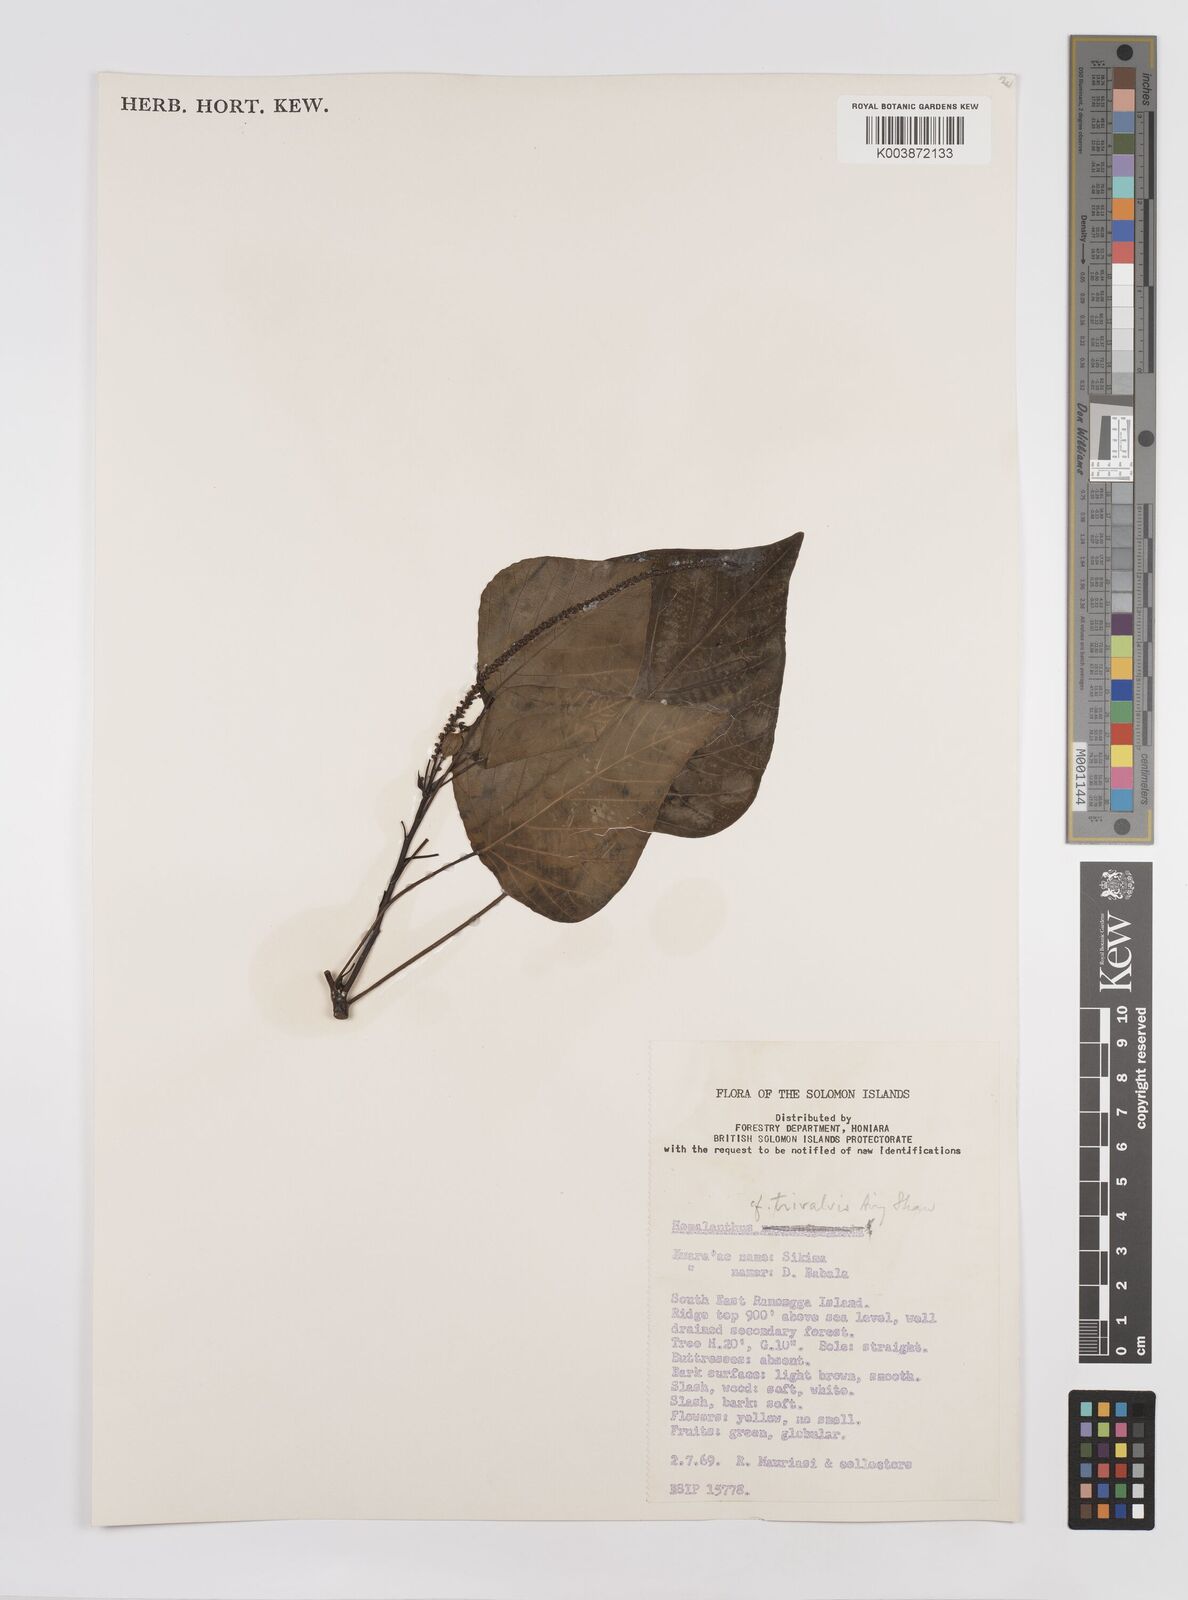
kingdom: Plantae
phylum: Tracheophyta
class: Magnoliopsida
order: Malpighiales
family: Euphorbiaceae
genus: Homalanthus
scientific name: Homalanthus trivalvis
